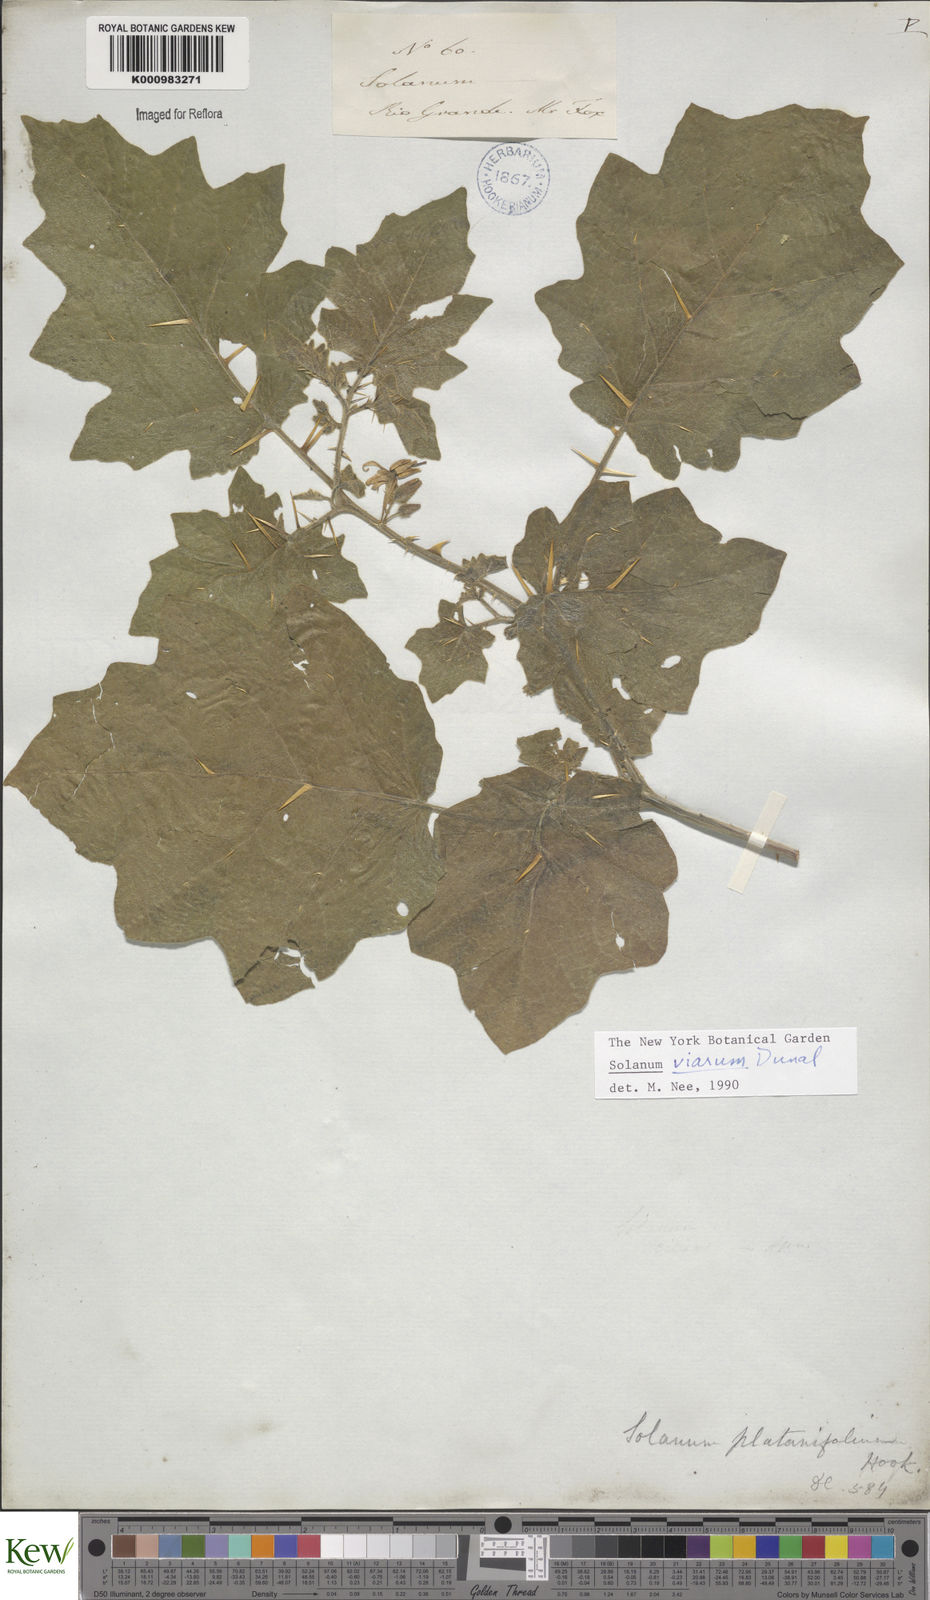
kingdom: Plantae
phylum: Tracheophyta
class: Magnoliopsida
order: Solanales
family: Solanaceae
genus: Solanum
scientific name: Solanum viarum
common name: Tropical soda apple
